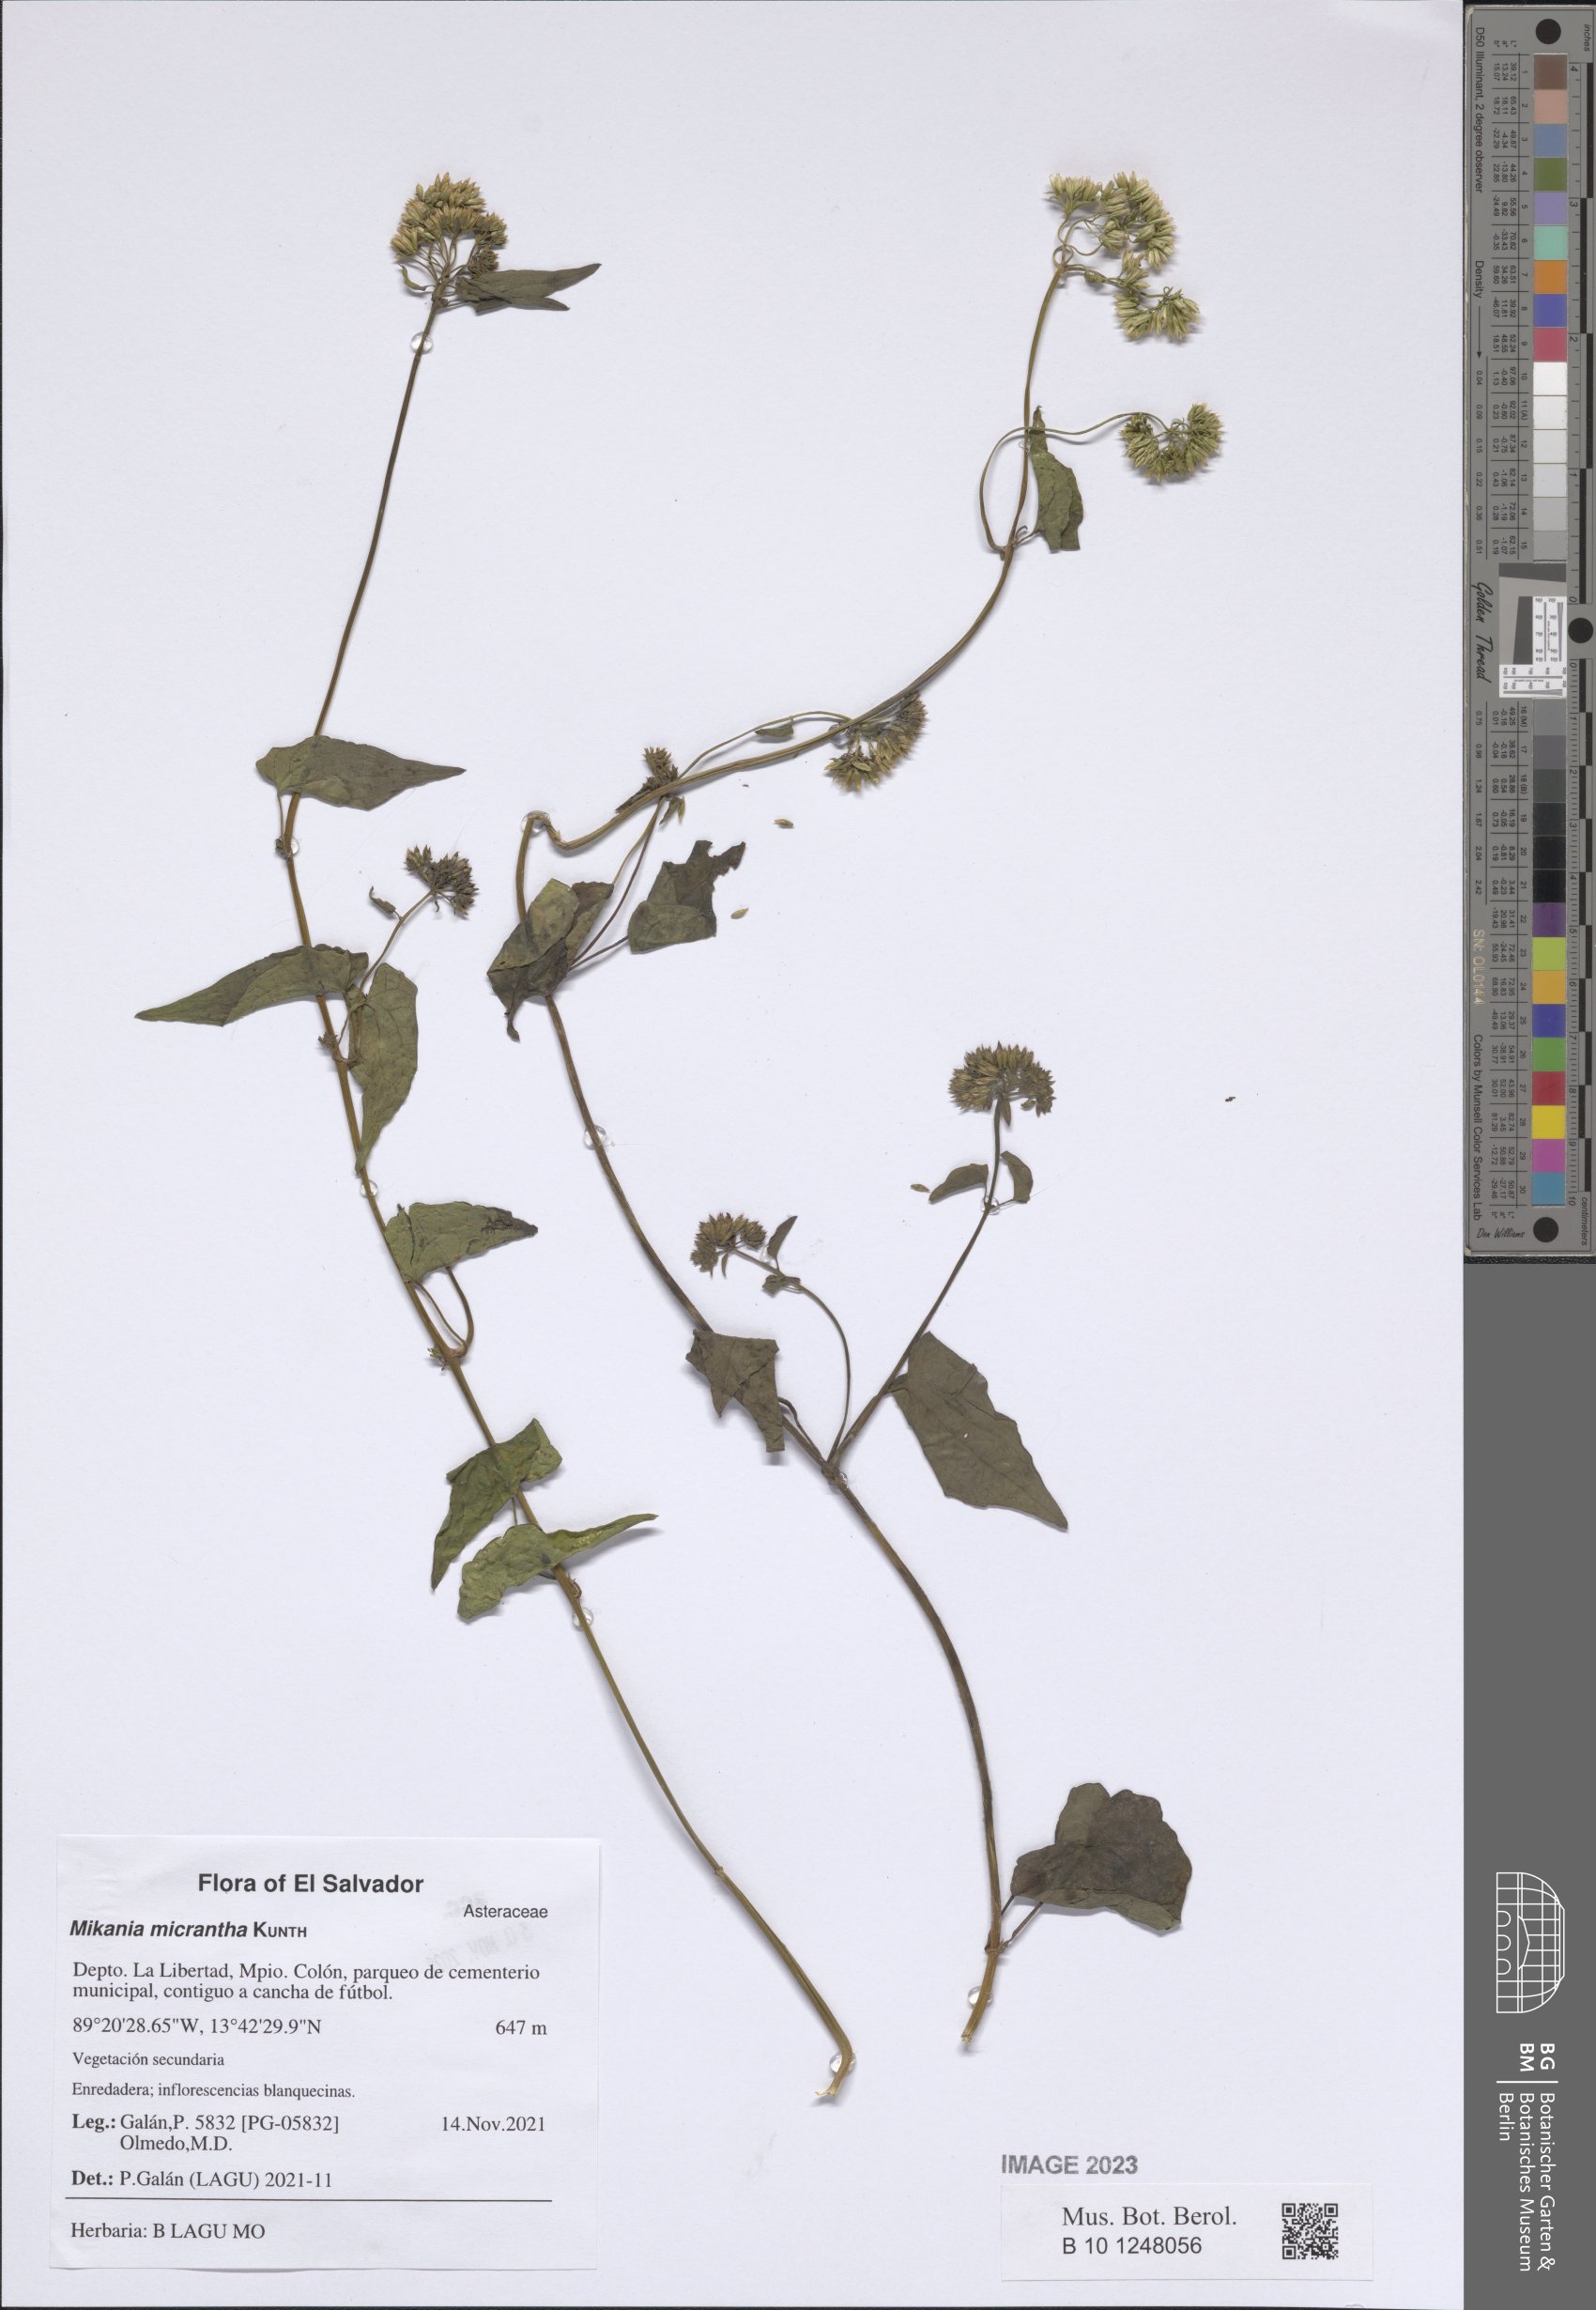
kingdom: Plantae
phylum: Tracheophyta
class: Magnoliopsida
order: Asterales
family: Asteraceae
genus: Mikania
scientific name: Mikania micrantha
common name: Mile-a-minute
